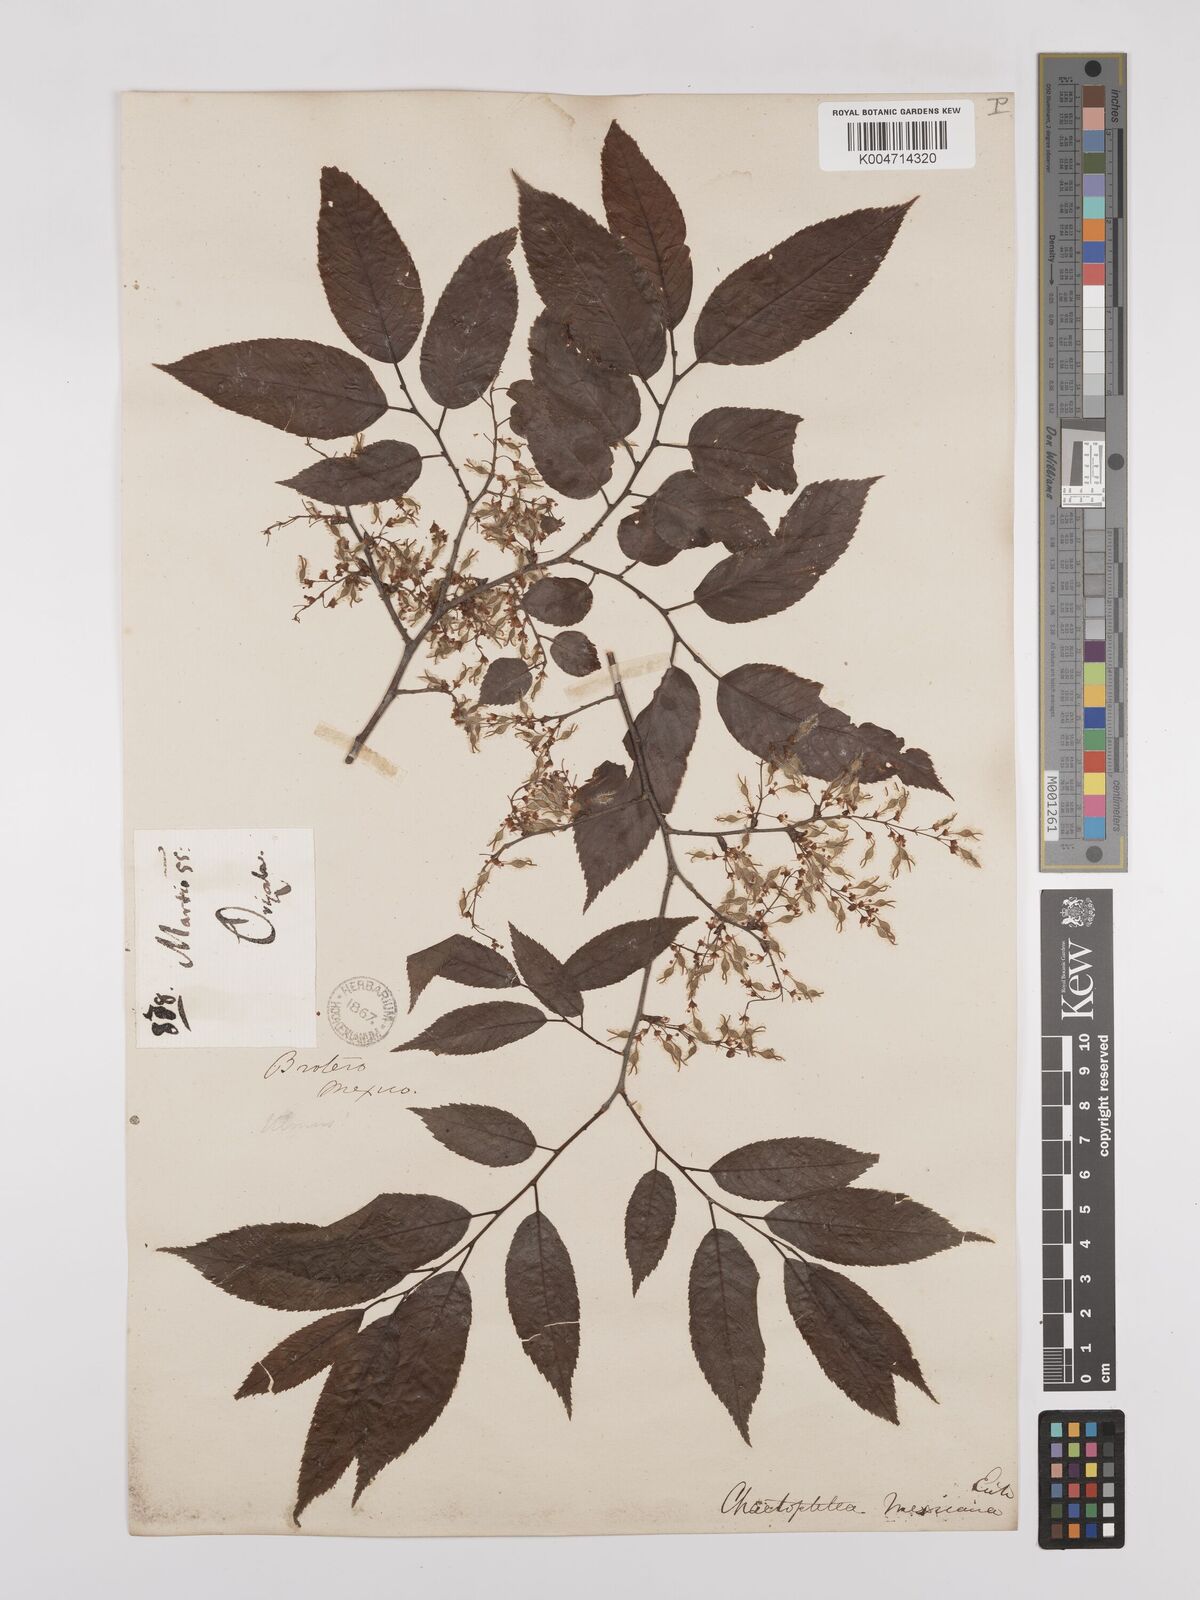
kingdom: Plantae
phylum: Tracheophyta
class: Magnoliopsida
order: Rosales
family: Ulmaceae
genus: Ulmus
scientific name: Ulmus mexicana
